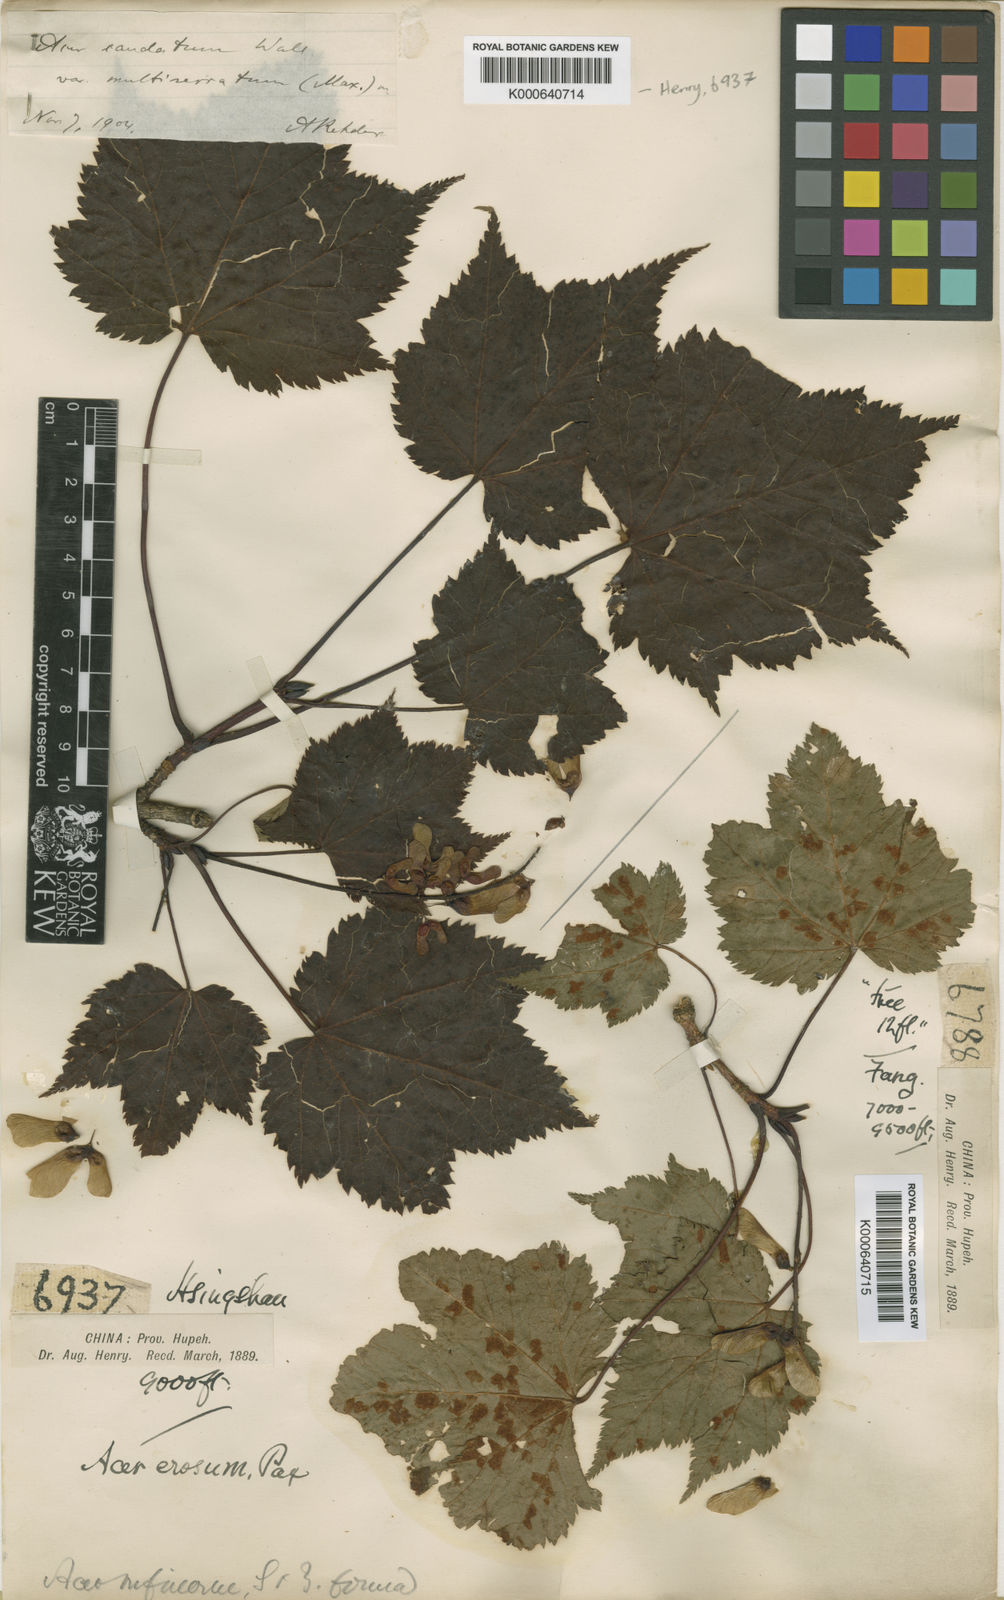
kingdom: Plantae
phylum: Tracheophyta
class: Magnoliopsida
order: Sapindales
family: Sapindaceae
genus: Acer
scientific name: Acer
